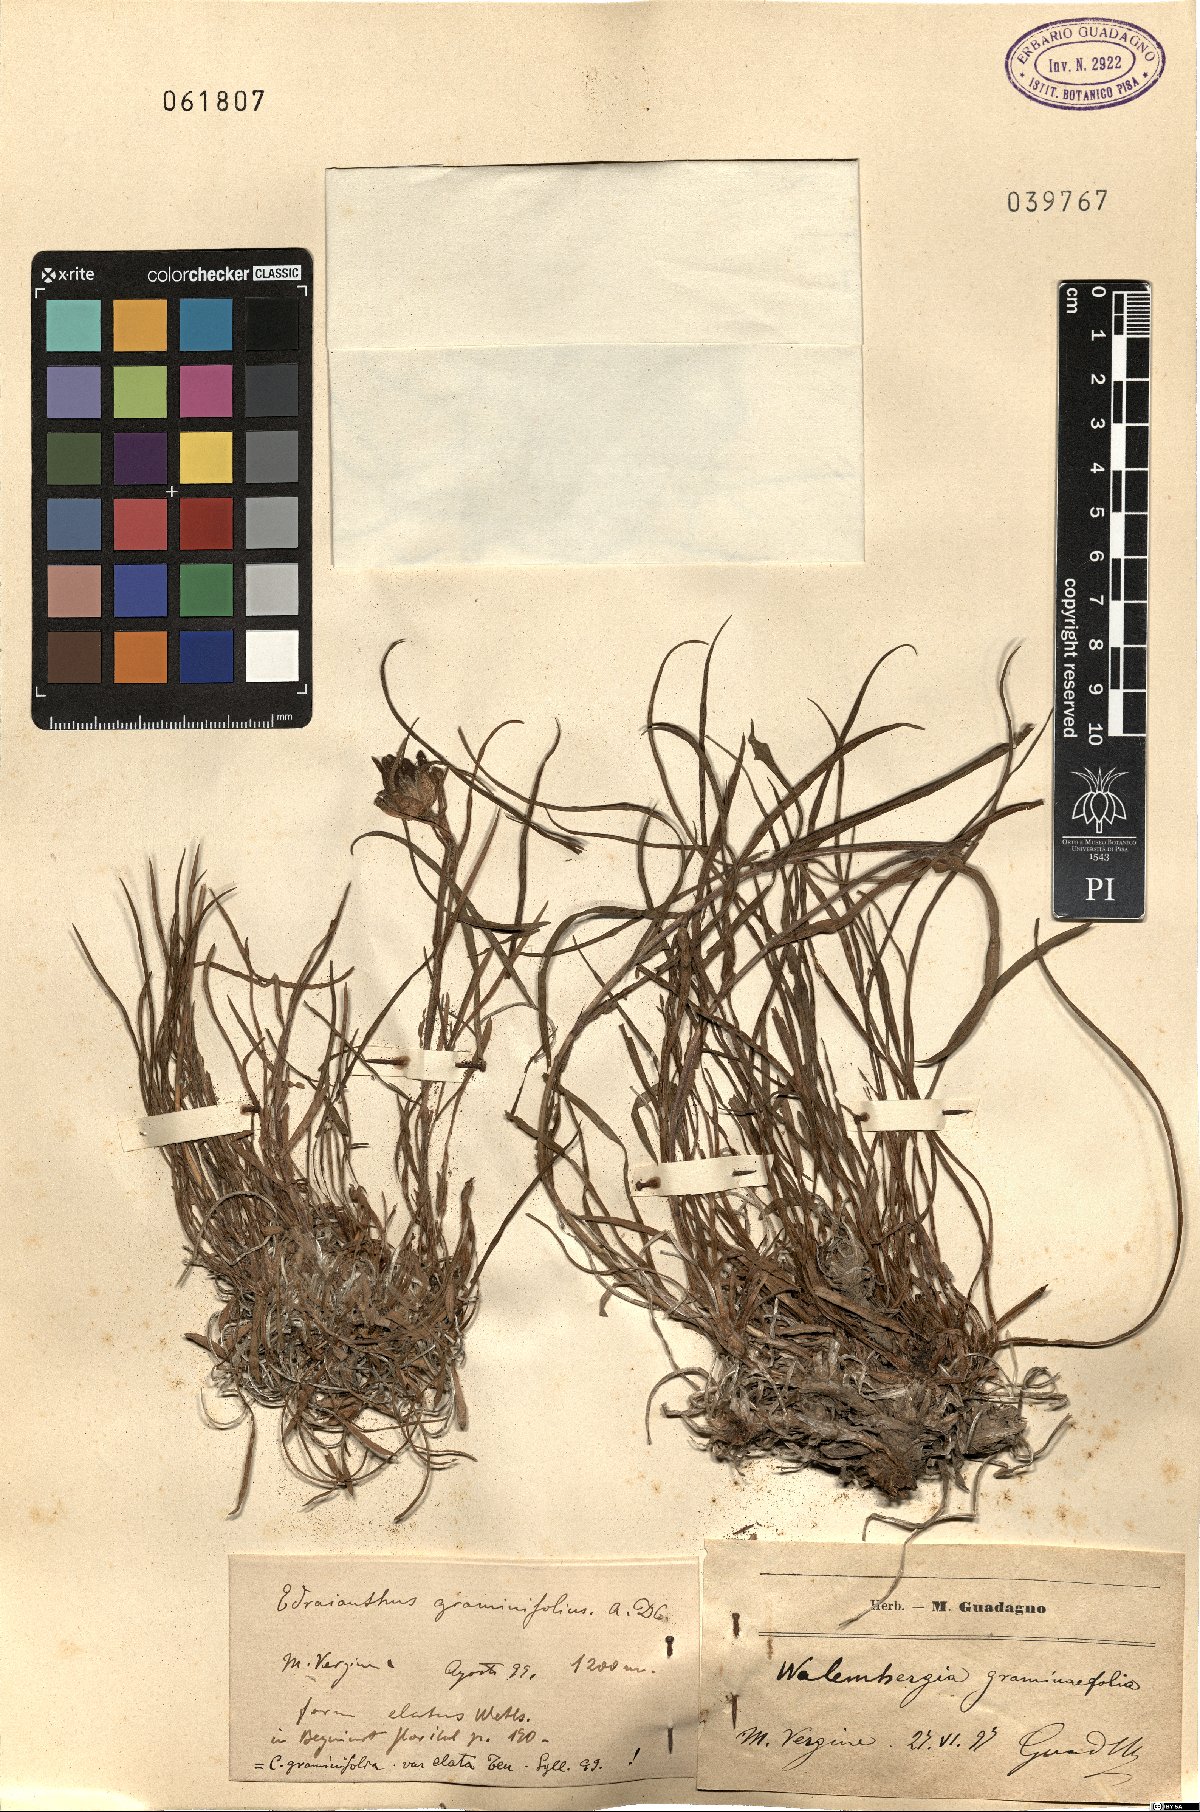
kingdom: Plantae
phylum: Tracheophyta
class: Magnoliopsida
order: Asterales
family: Campanulaceae
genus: Edraianthus
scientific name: Edraianthus graminifolius
